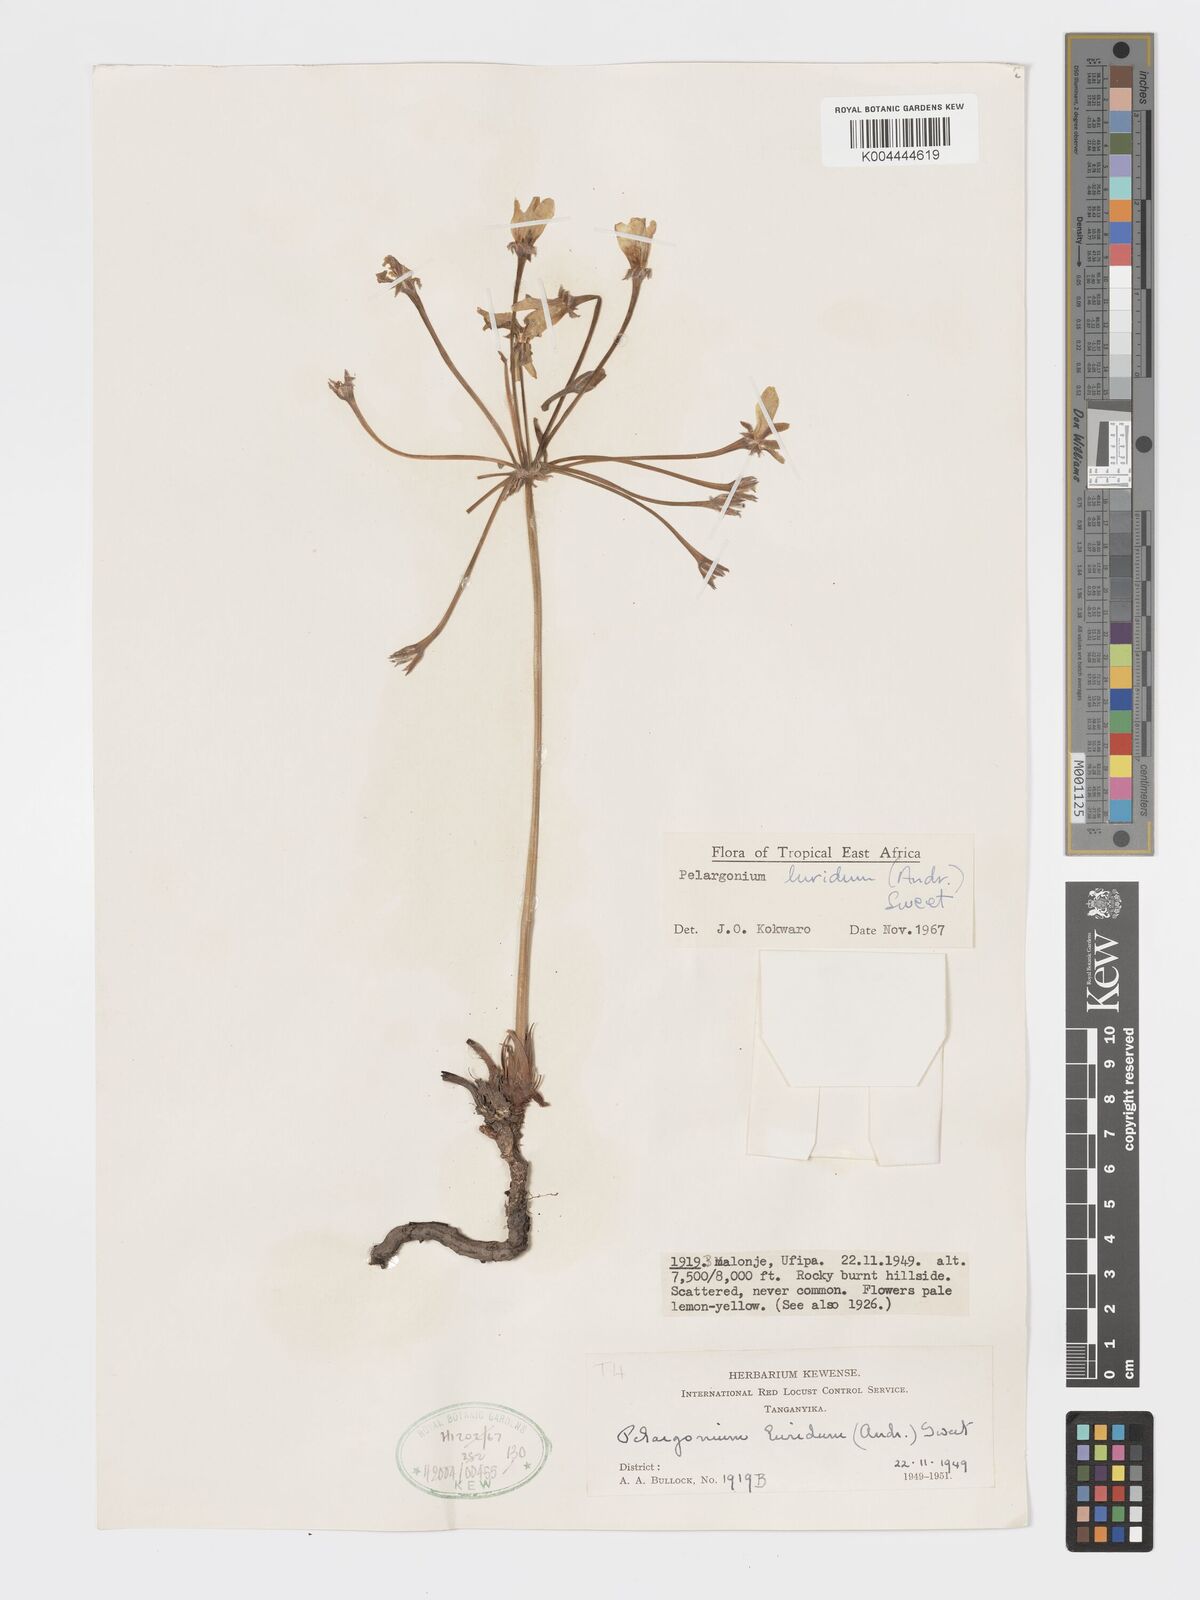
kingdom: Plantae
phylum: Tracheophyta
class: Magnoliopsida
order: Geraniales
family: Geraniaceae
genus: Pelargonium
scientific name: Pelargonium luridum
